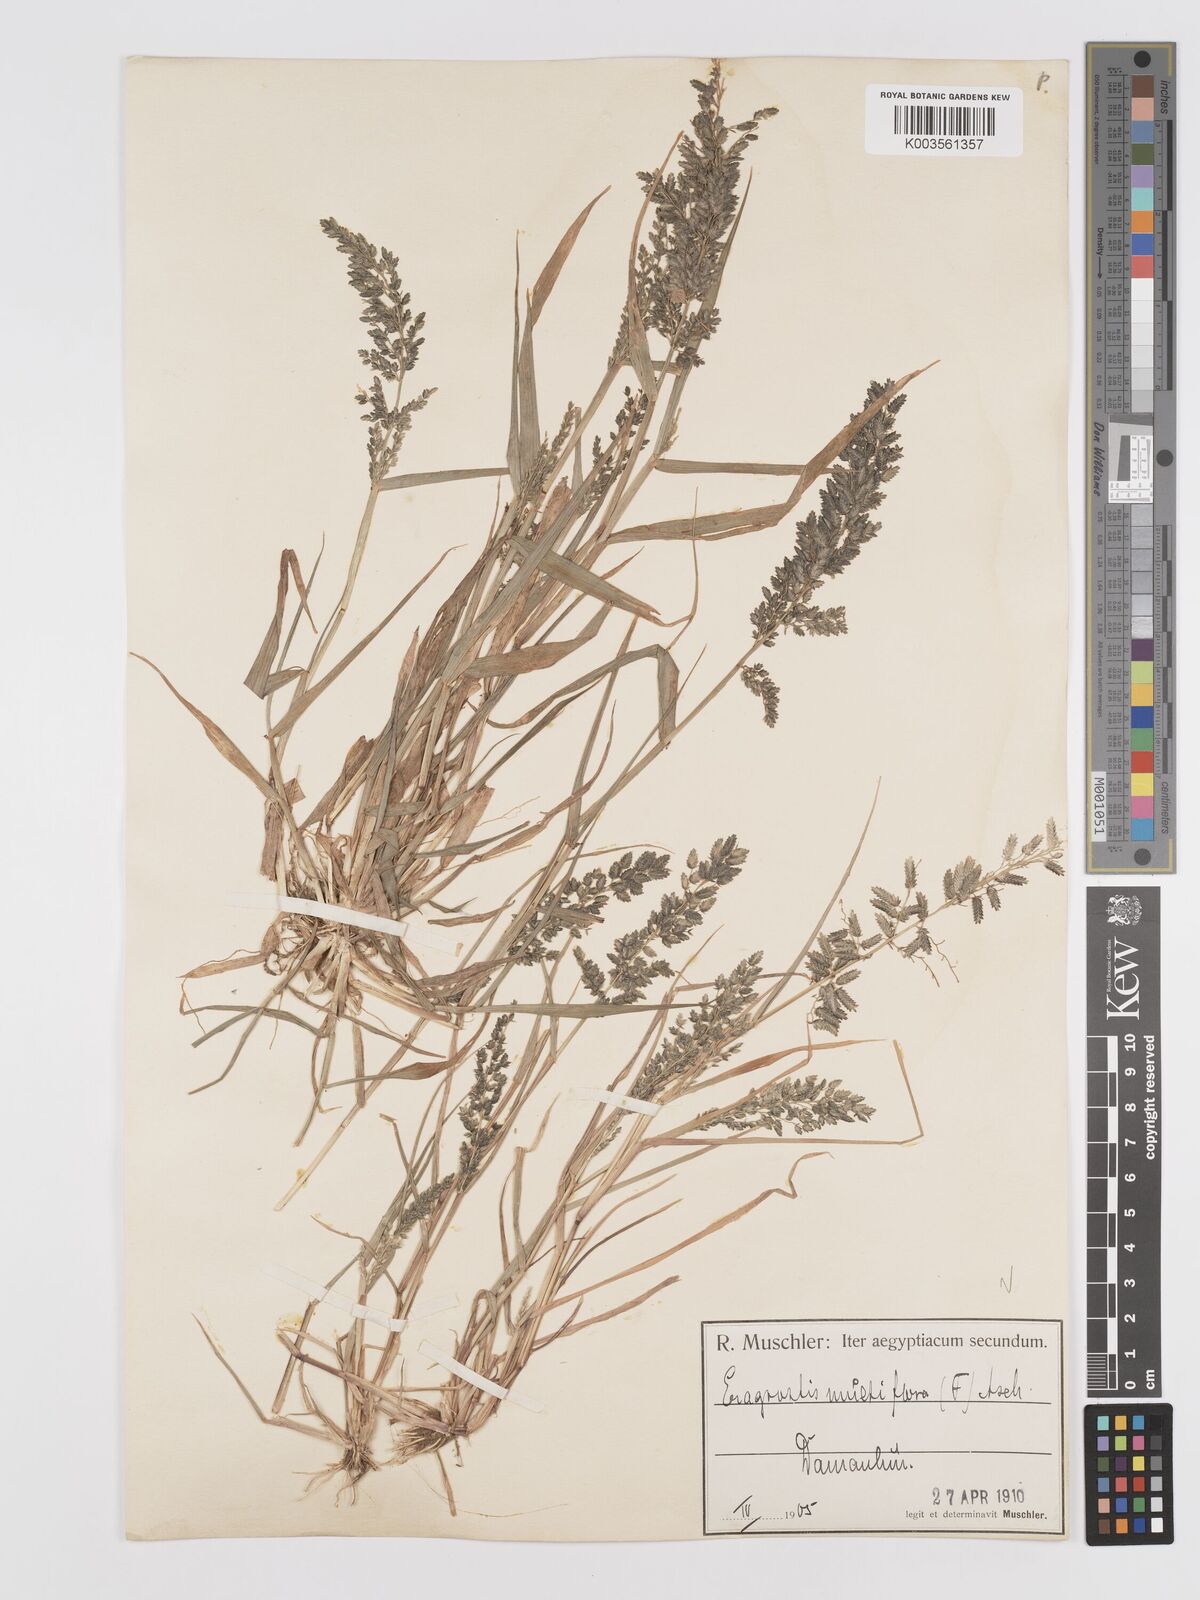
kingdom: Plantae
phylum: Tracheophyta
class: Liliopsida
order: Poales
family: Poaceae
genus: Eragrostis
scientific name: Eragrostis cilianensis
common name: Stinkgrass
